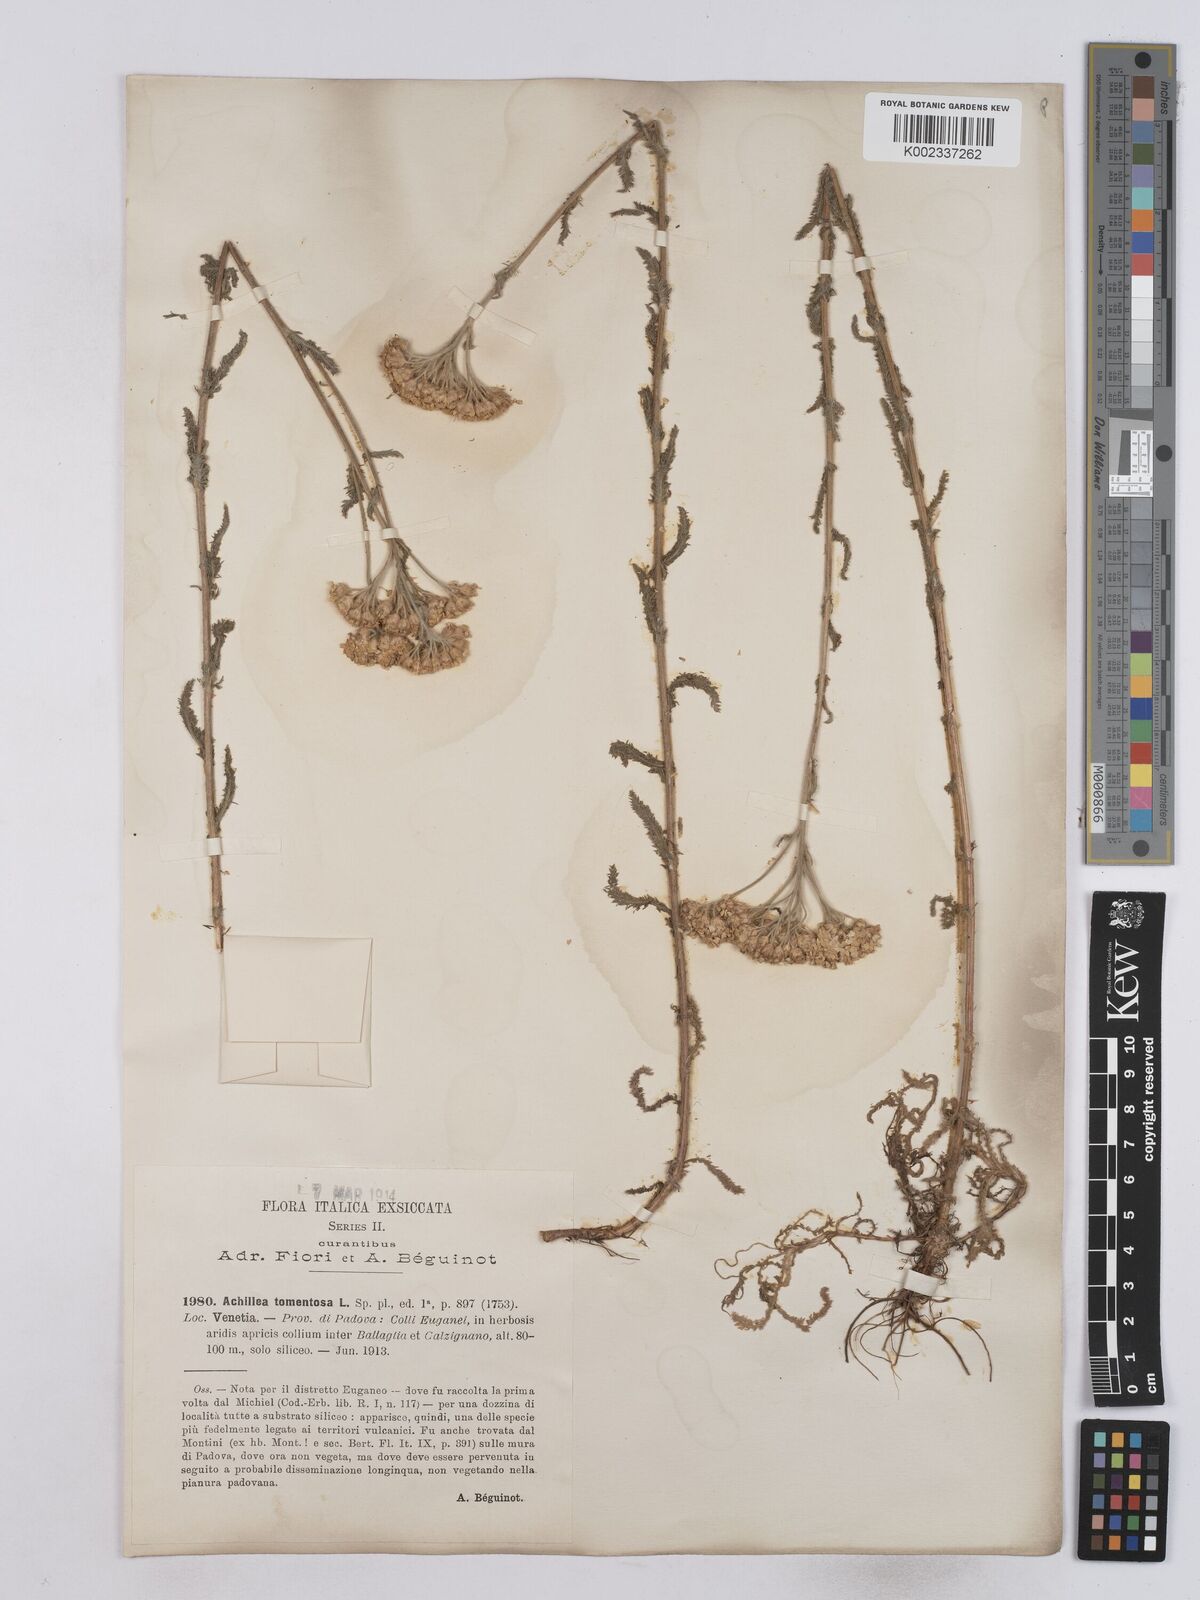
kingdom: Plantae
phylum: Tracheophyta
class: Magnoliopsida
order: Asterales
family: Asteraceae
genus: Achillea
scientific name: Achillea tomentosa
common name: Yellow milfoil
